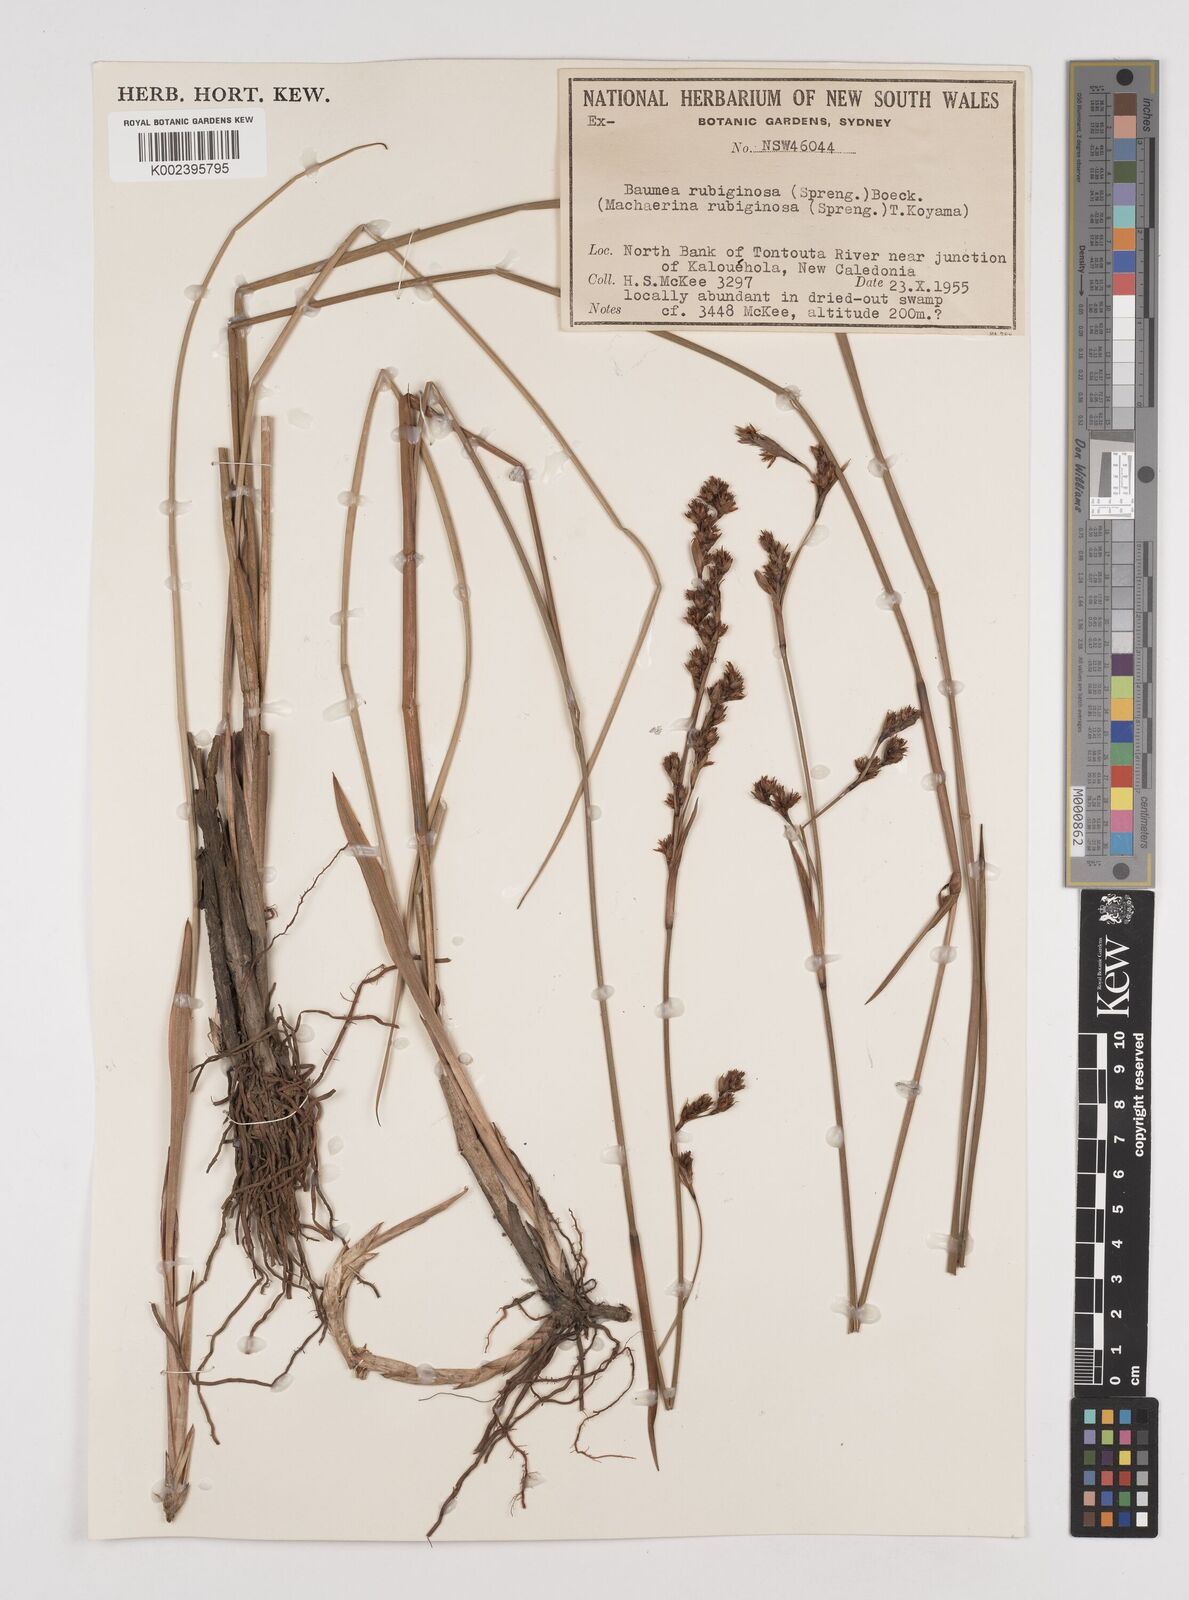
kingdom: Plantae
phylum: Tracheophyta
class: Liliopsida
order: Poales
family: Cyperaceae
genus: Machaerina
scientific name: Machaerina rubiginosa
